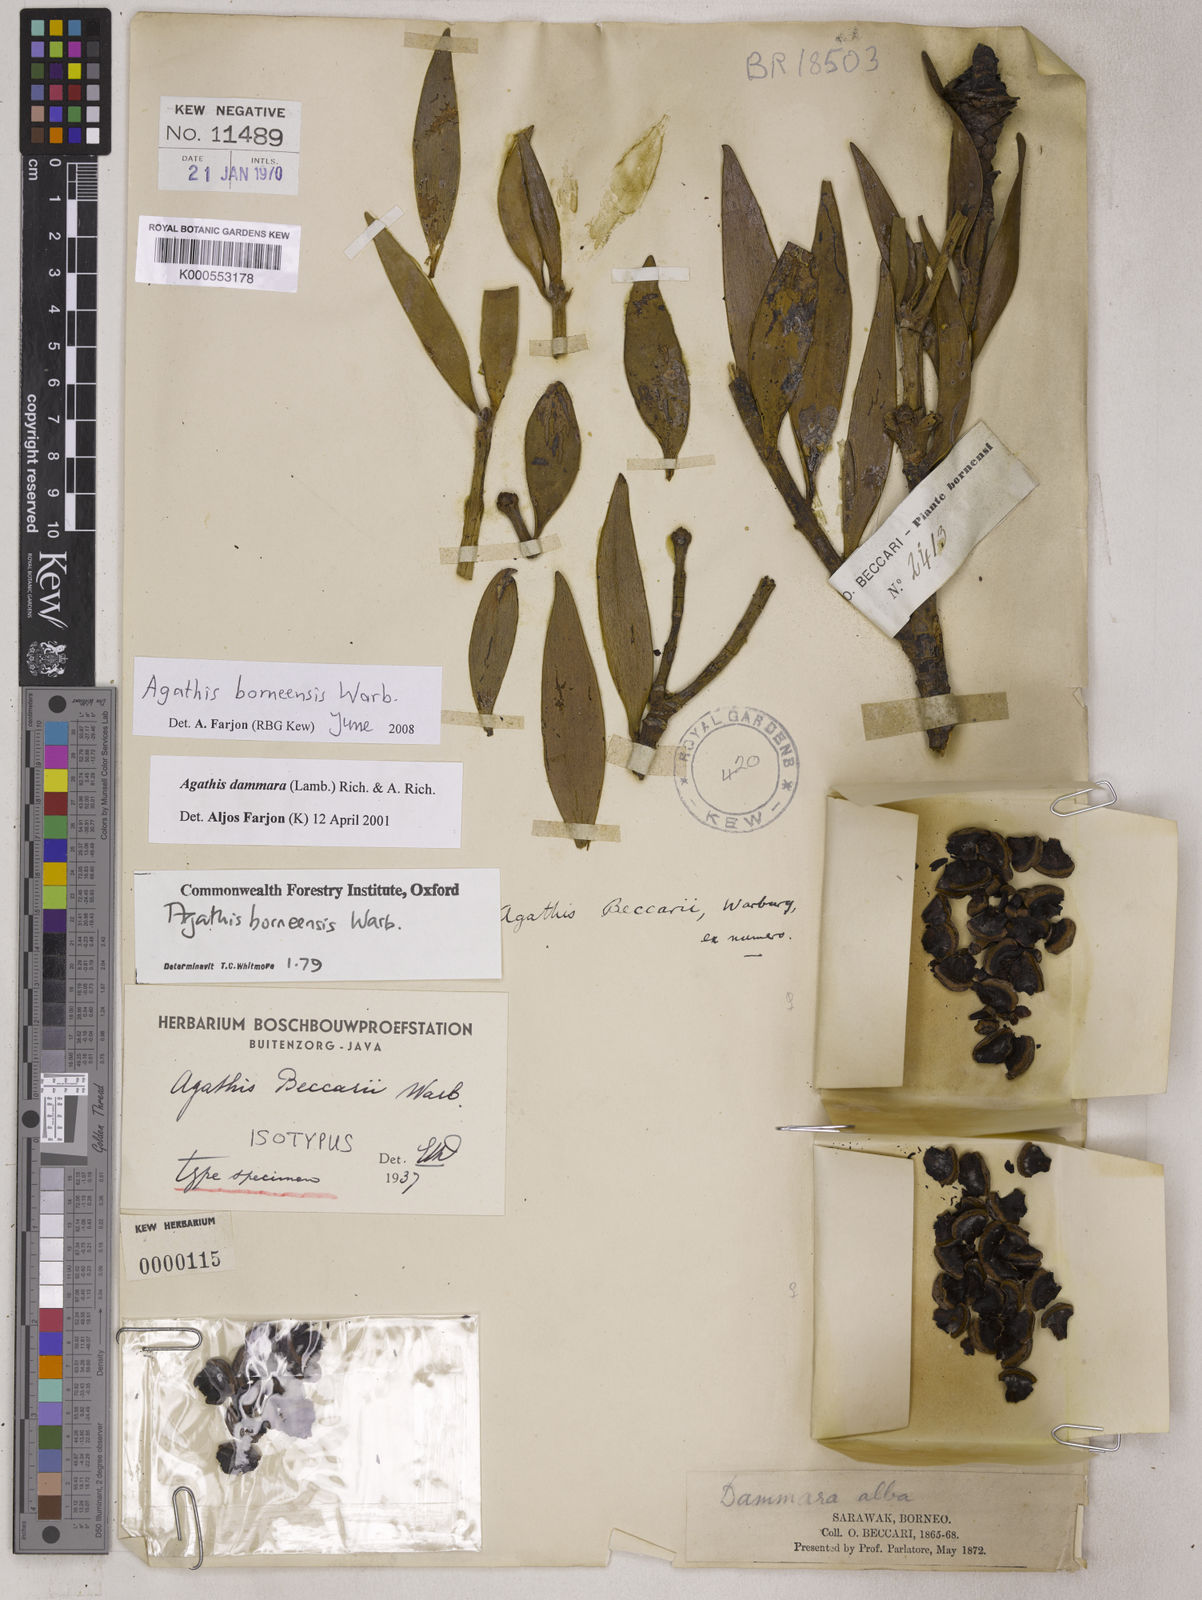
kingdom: Plantae
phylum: Tracheophyta
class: Pinopsida
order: Pinales
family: Araucariaceae
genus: Agathis
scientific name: Agathis borneensis
